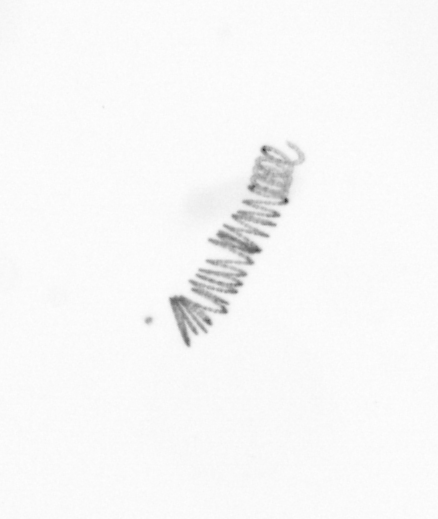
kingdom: Chromista
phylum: Ochrophyta
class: Bacillariophyceae
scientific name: Bacillariophyceae
